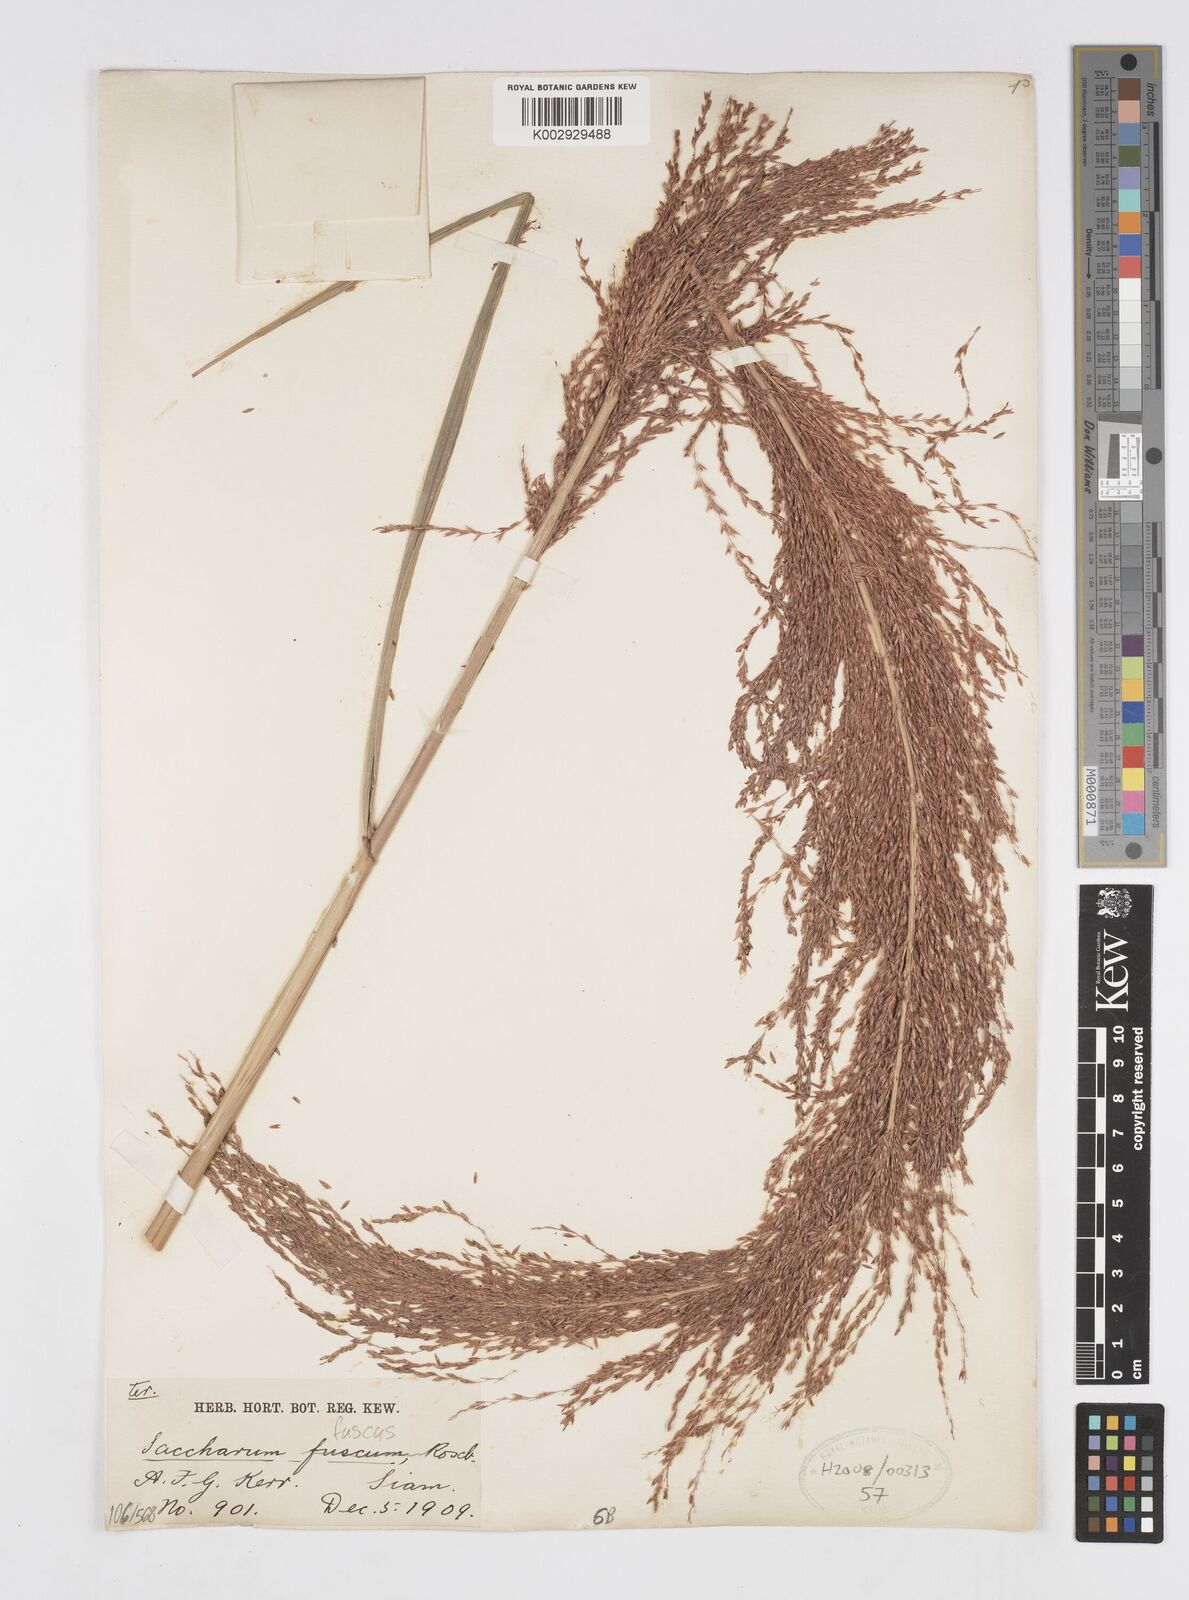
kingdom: Plantae
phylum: Tracheophyta
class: Liliopsida
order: Poales
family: Poaceae
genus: Miscanthus
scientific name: Miscanthus fuscus
